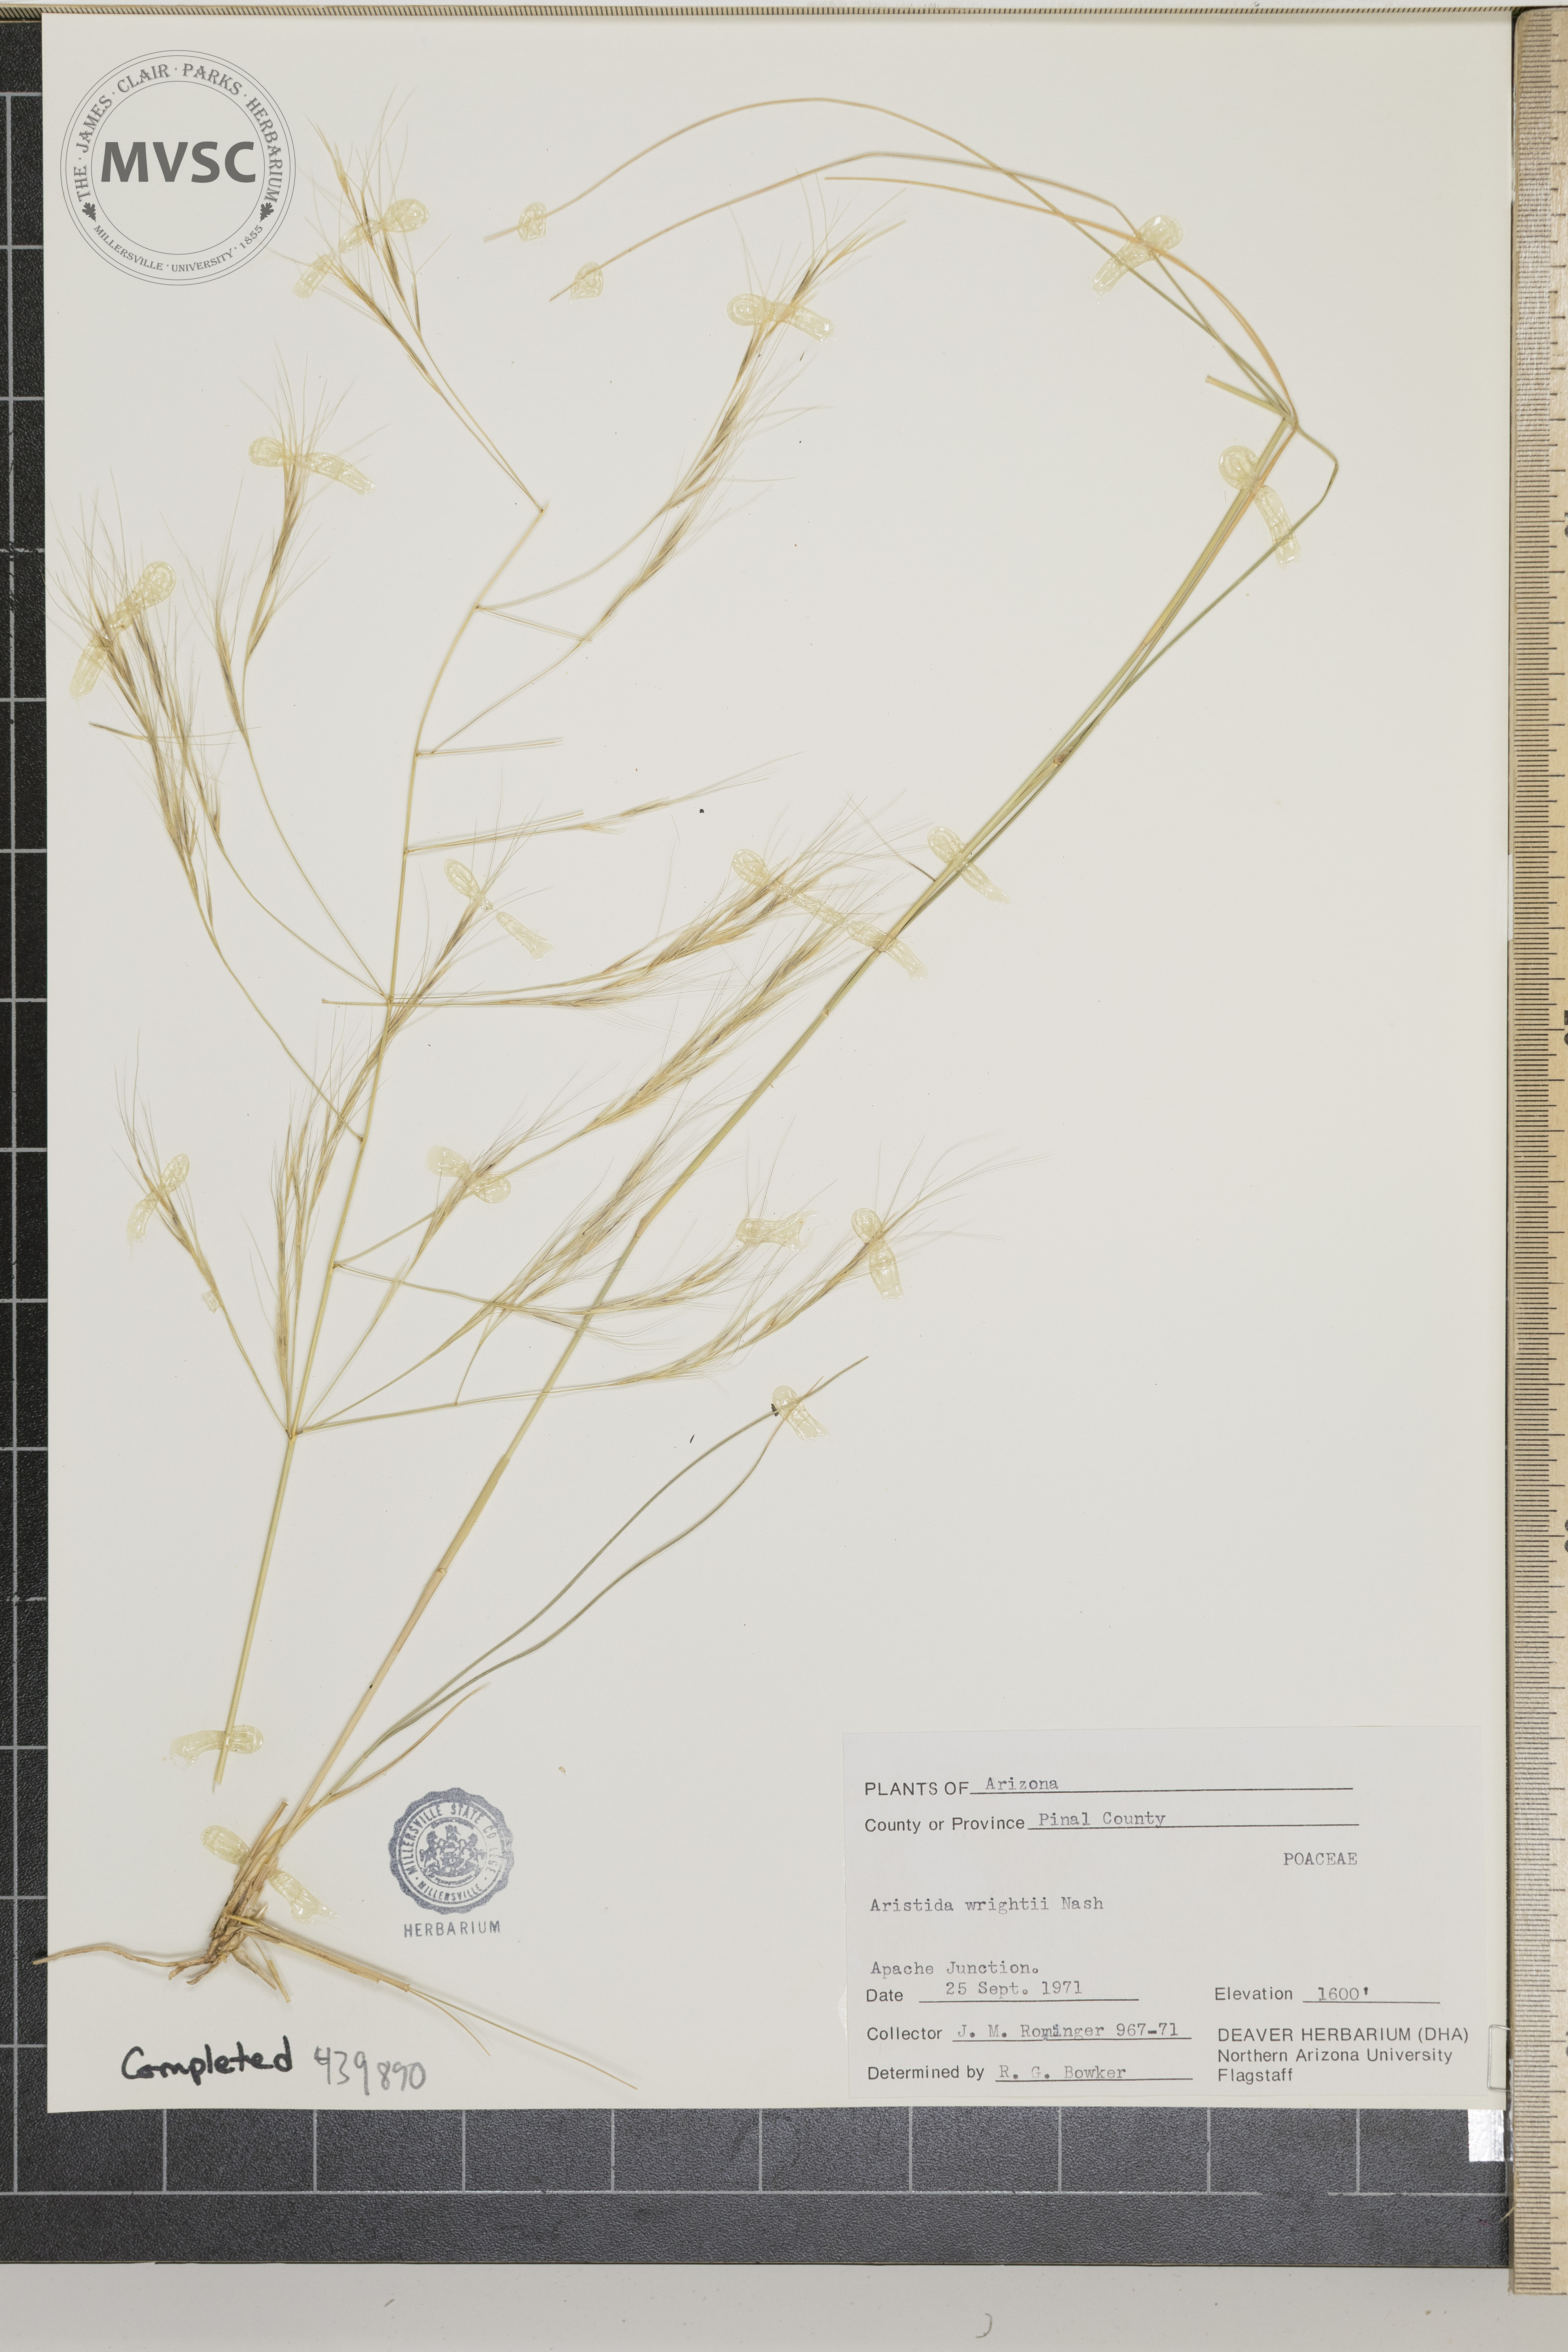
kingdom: Plantae
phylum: Tracheophyta
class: Liliopsida
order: Poales
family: Poaceae
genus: Aristida
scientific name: Aristida wrightii
